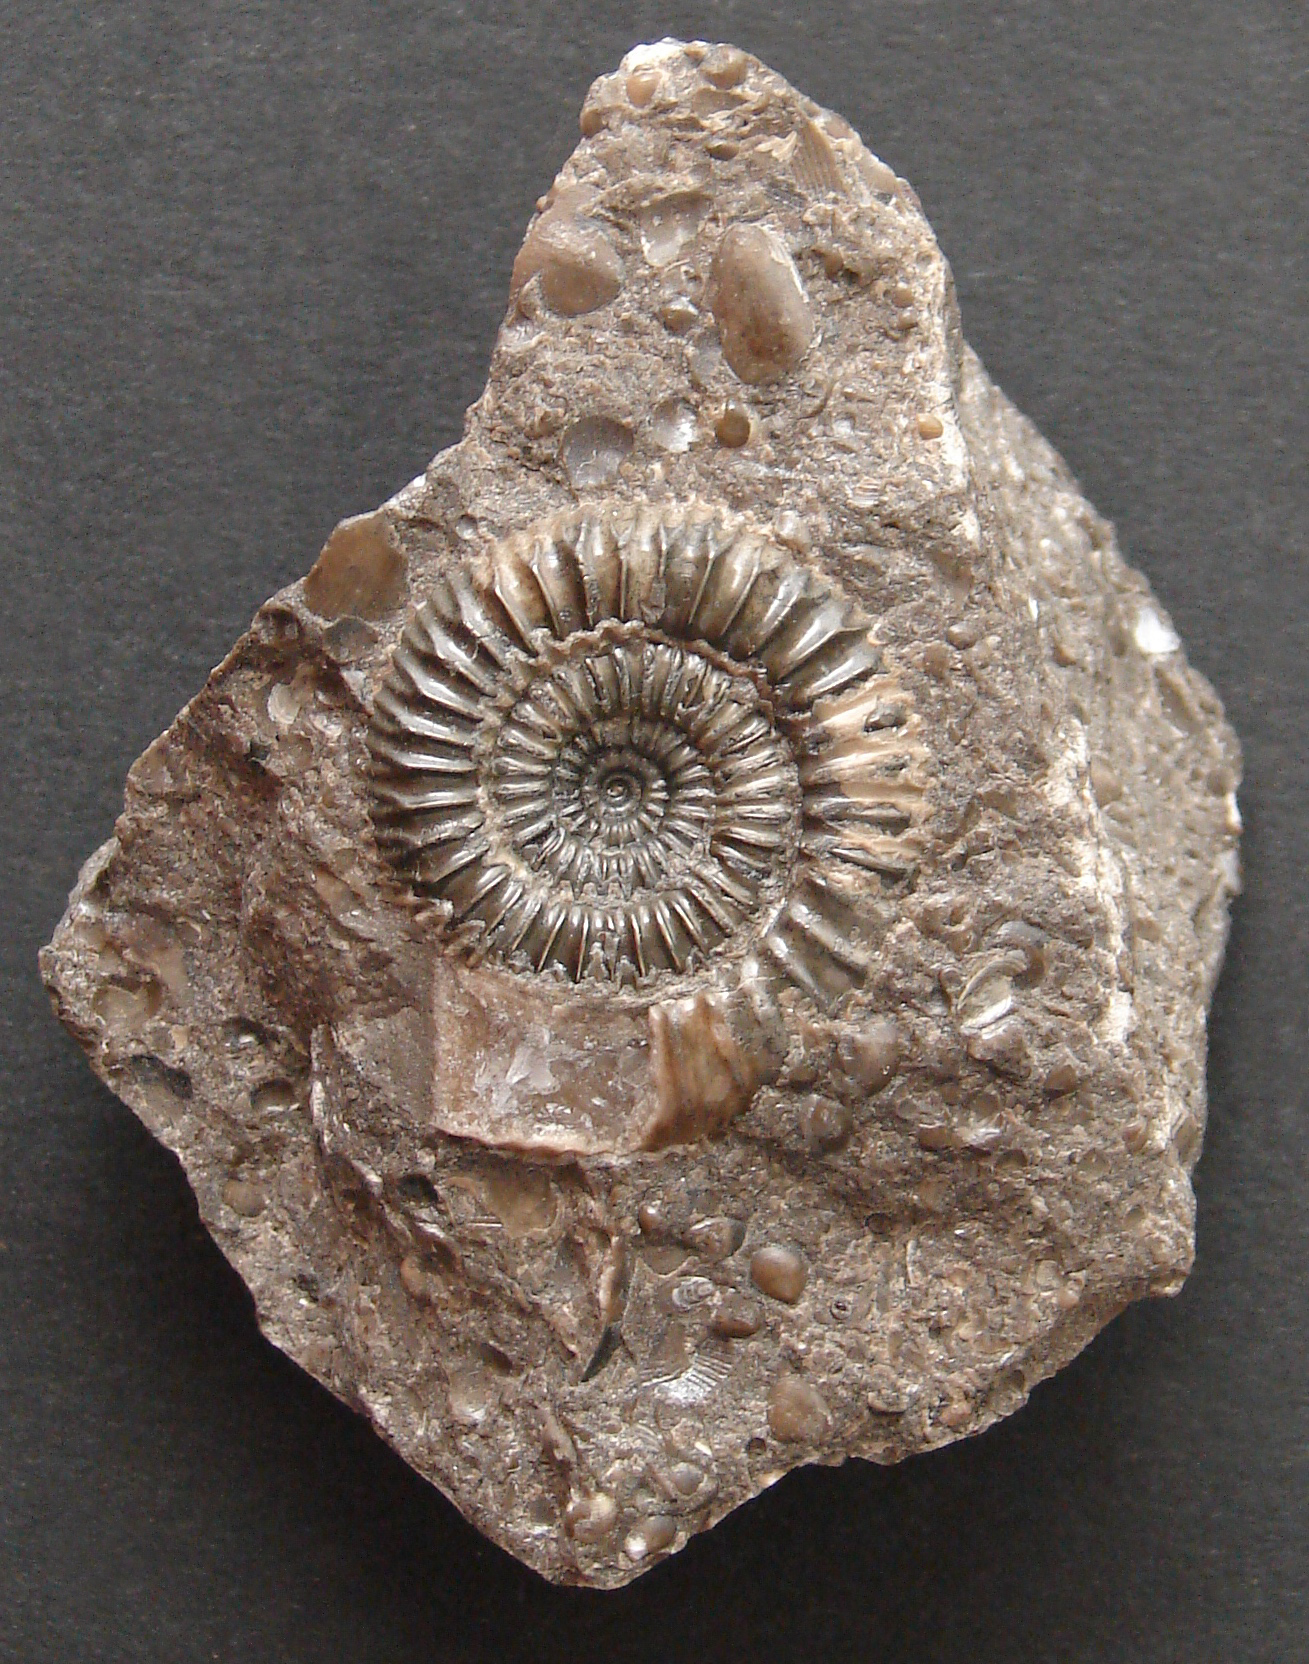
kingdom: Animalia
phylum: Mollusca
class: Cephalopoda
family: Dactylioceratidae
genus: Dactylioceras
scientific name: Dactylioceras crassiusculum
